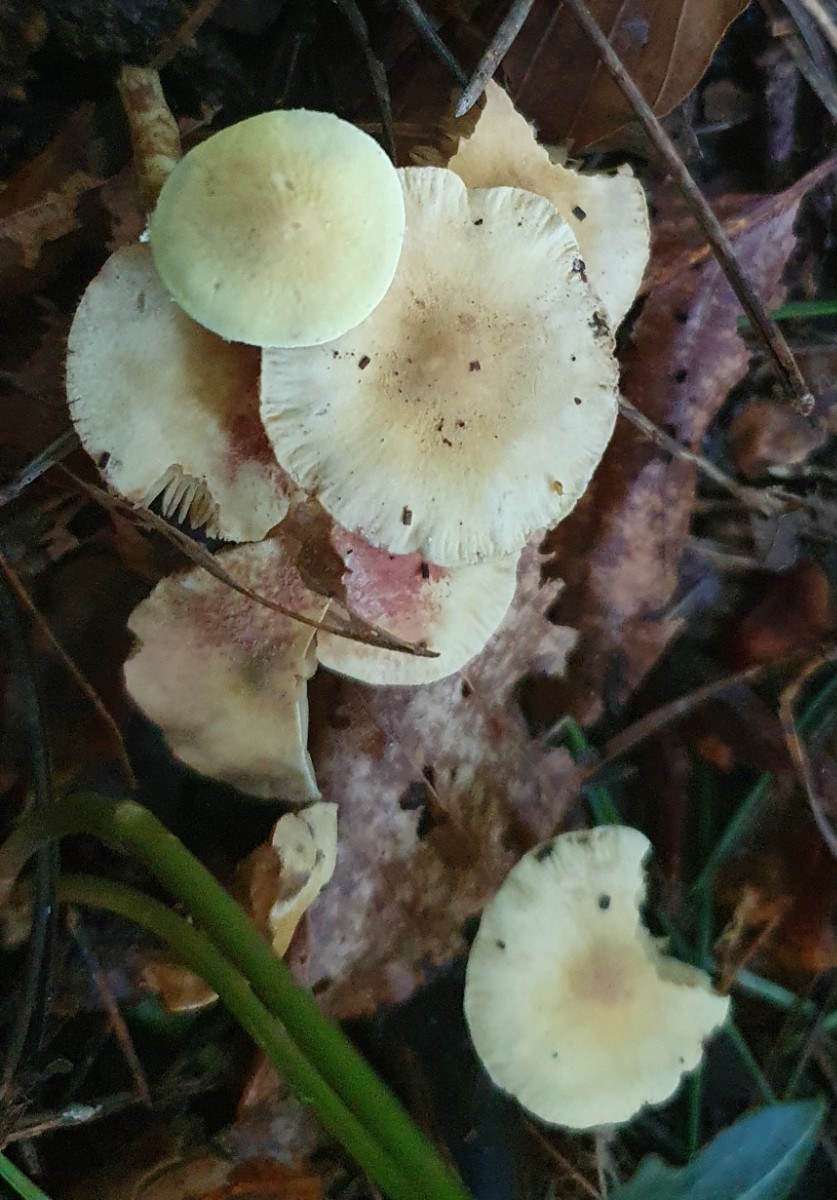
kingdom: Fungi
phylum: Basidiomycota
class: Agaricomycetes
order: Agaricales
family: Agaricaceae
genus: Cystolepiota
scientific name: Cystolepiota icterina
